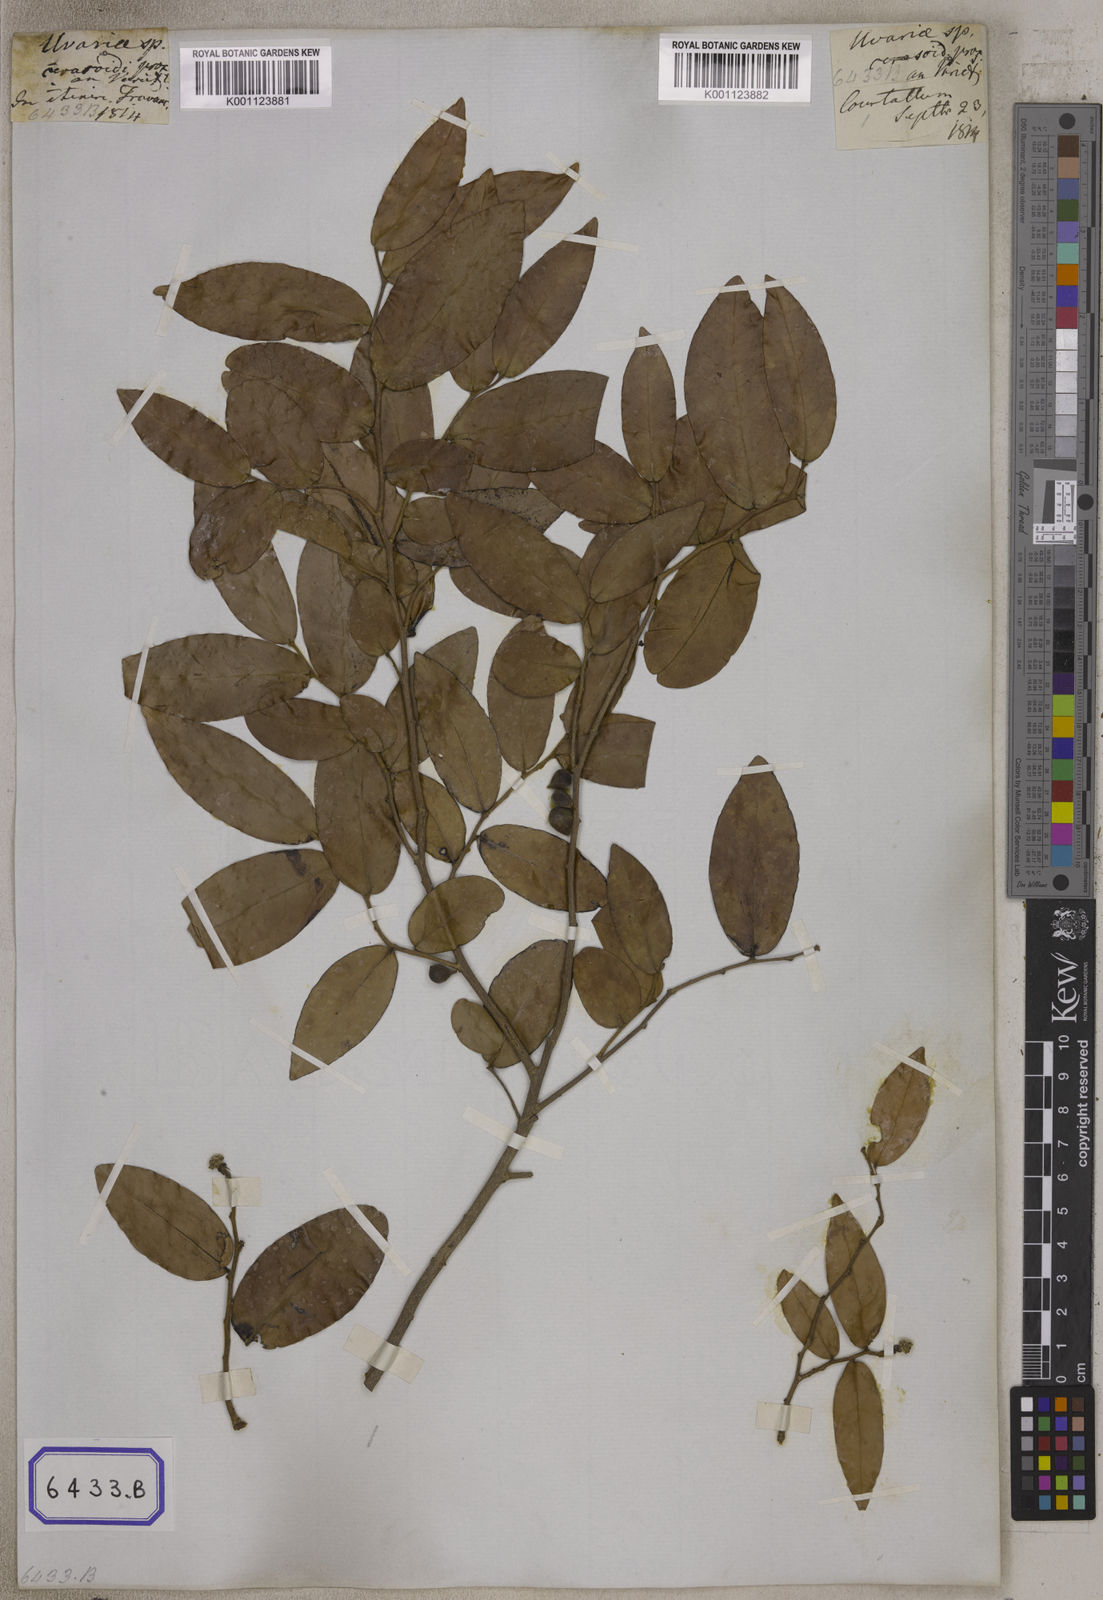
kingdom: Plantae
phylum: Tracheophyta
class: Magnoliopsida
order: Magnoliales
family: Annonaceae
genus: Miliusa
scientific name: Miliusa indica
